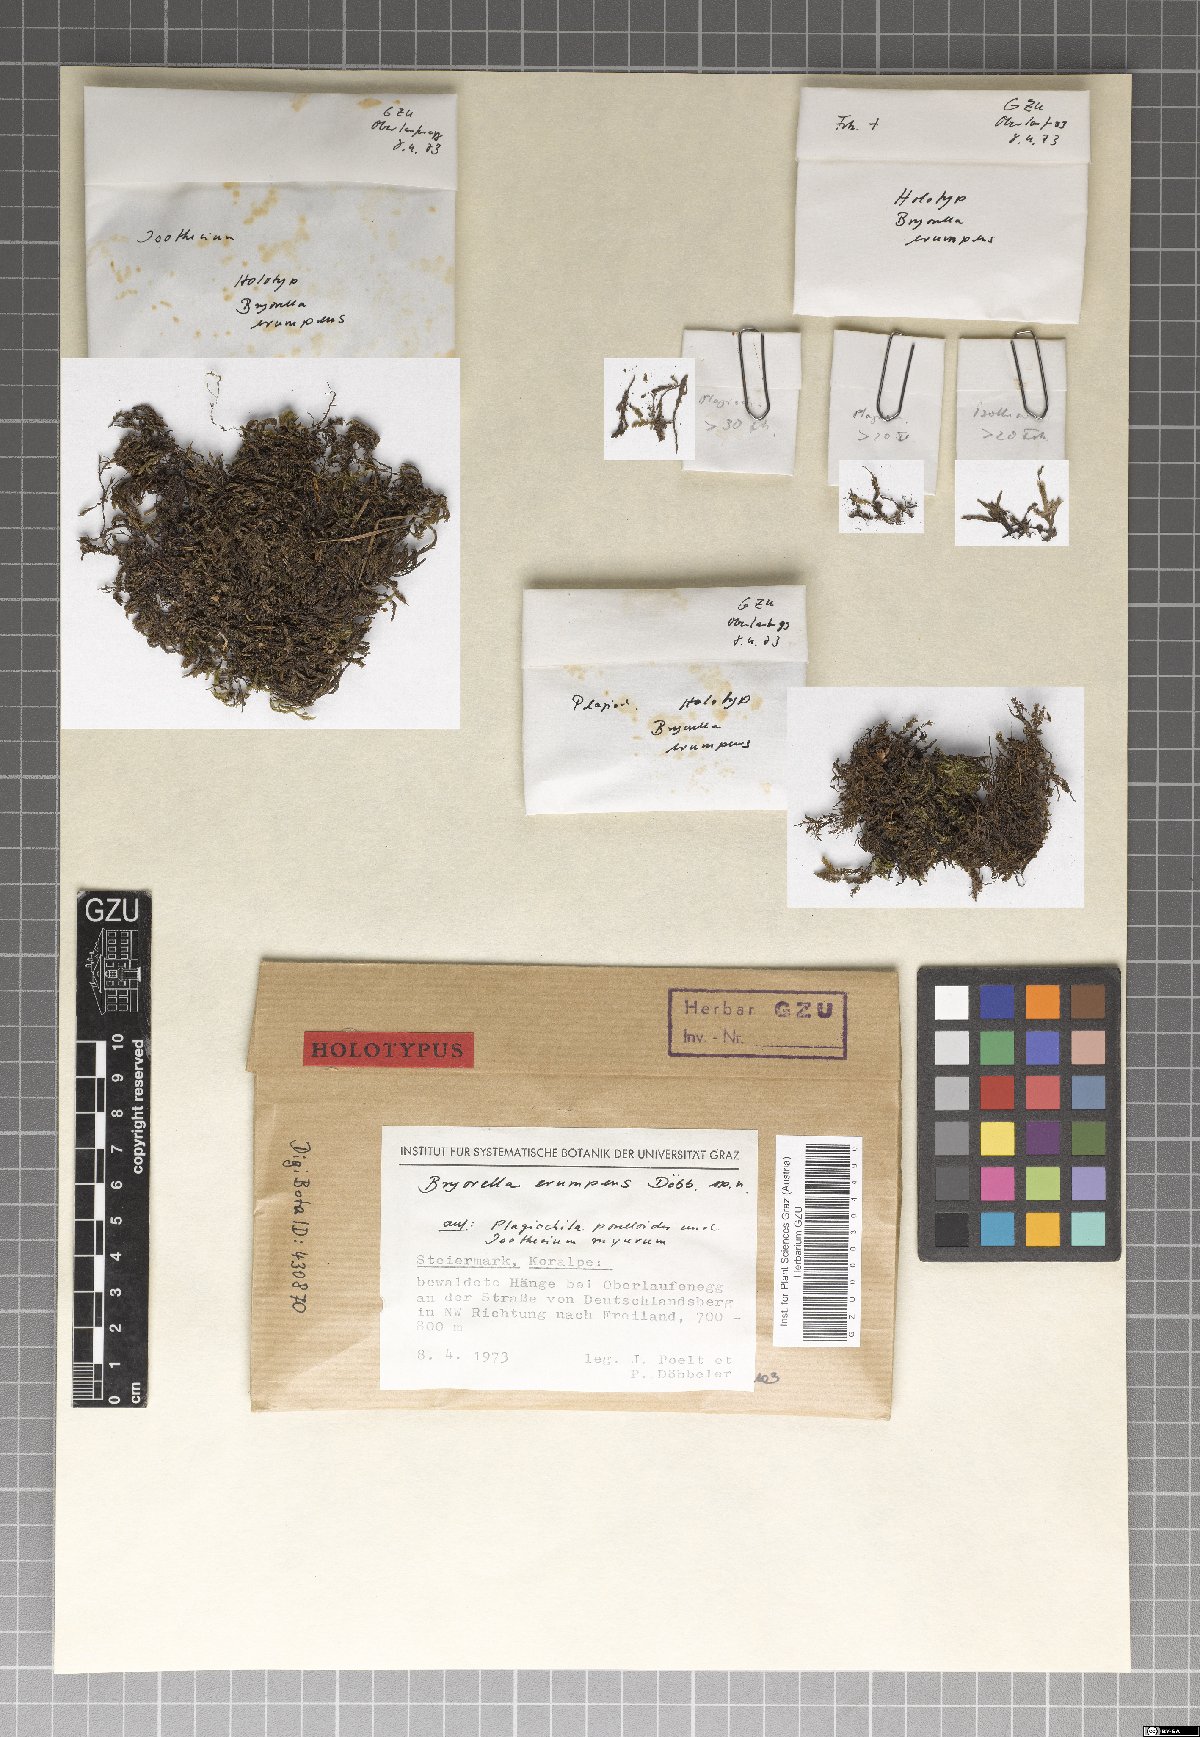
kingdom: Fungi
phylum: Ascomycota
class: Dothideomycetes
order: Dothideales
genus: Bryorella
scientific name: Bryorella erumpens
